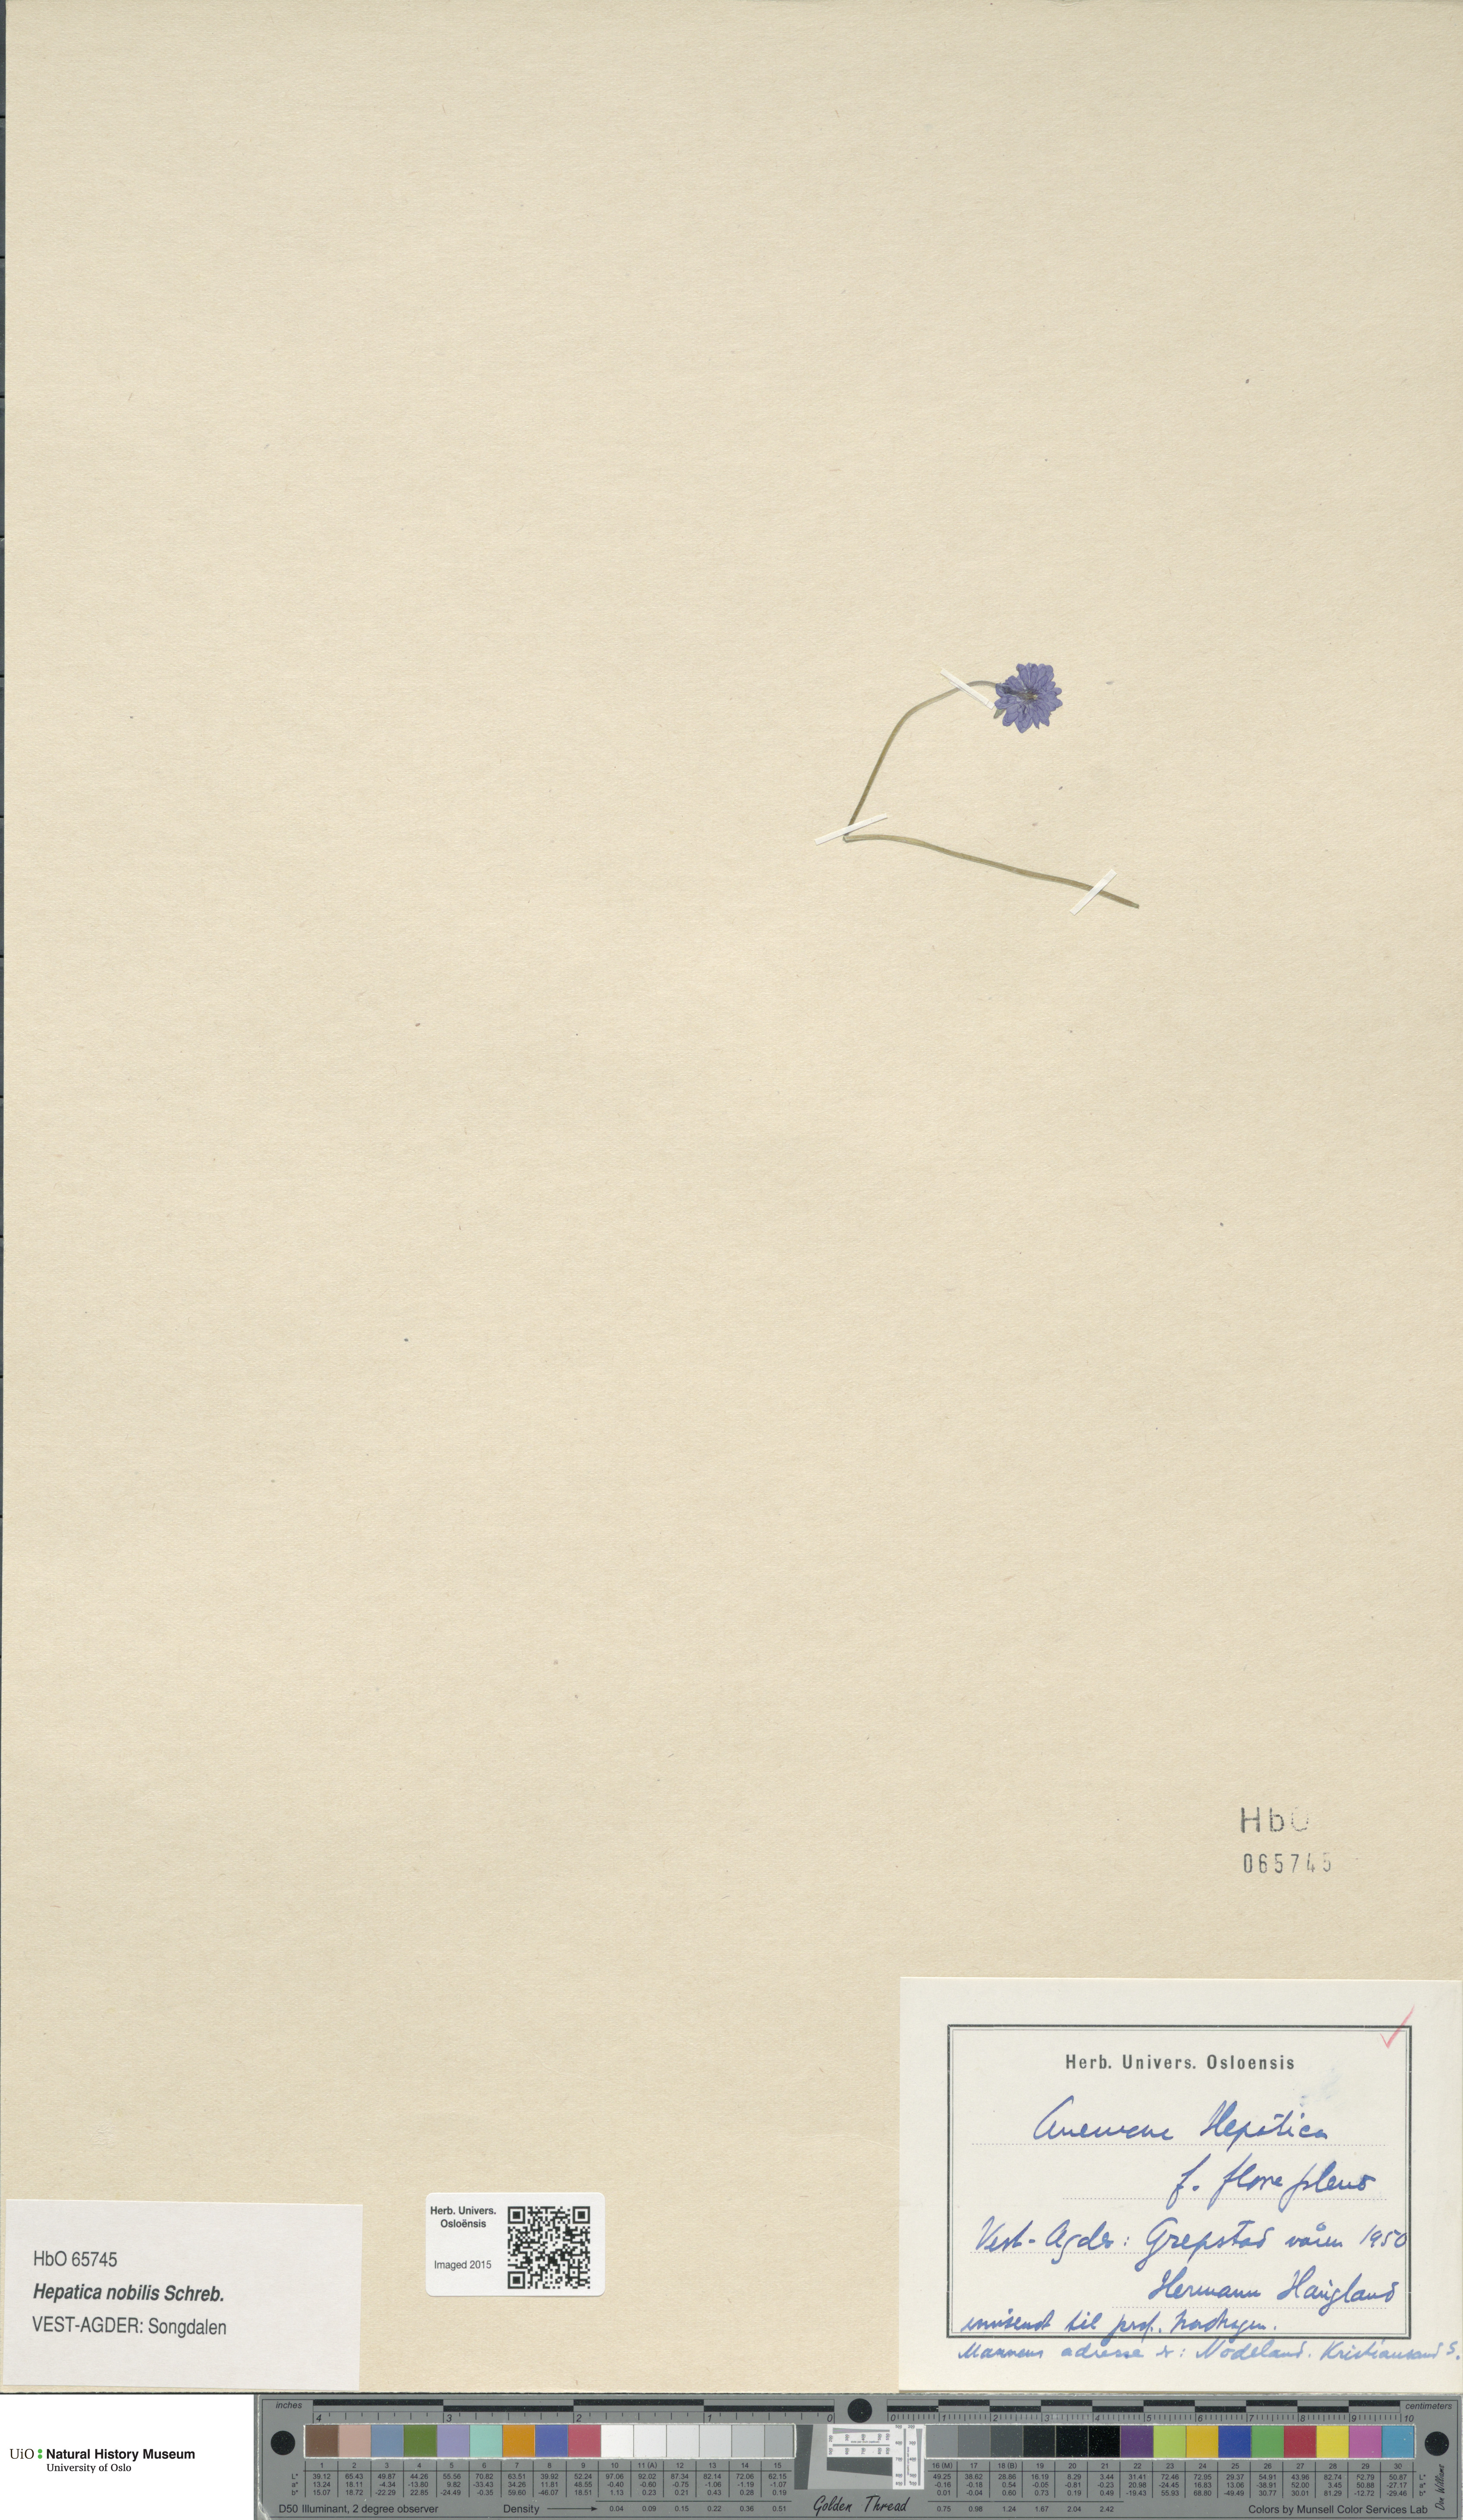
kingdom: Plantae
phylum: Tracheophyta
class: Magnoliopsida
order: Ranunculales
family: Ranunculaceae
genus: Hepatica
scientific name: Hepatica nobilis
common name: Liverleaf
